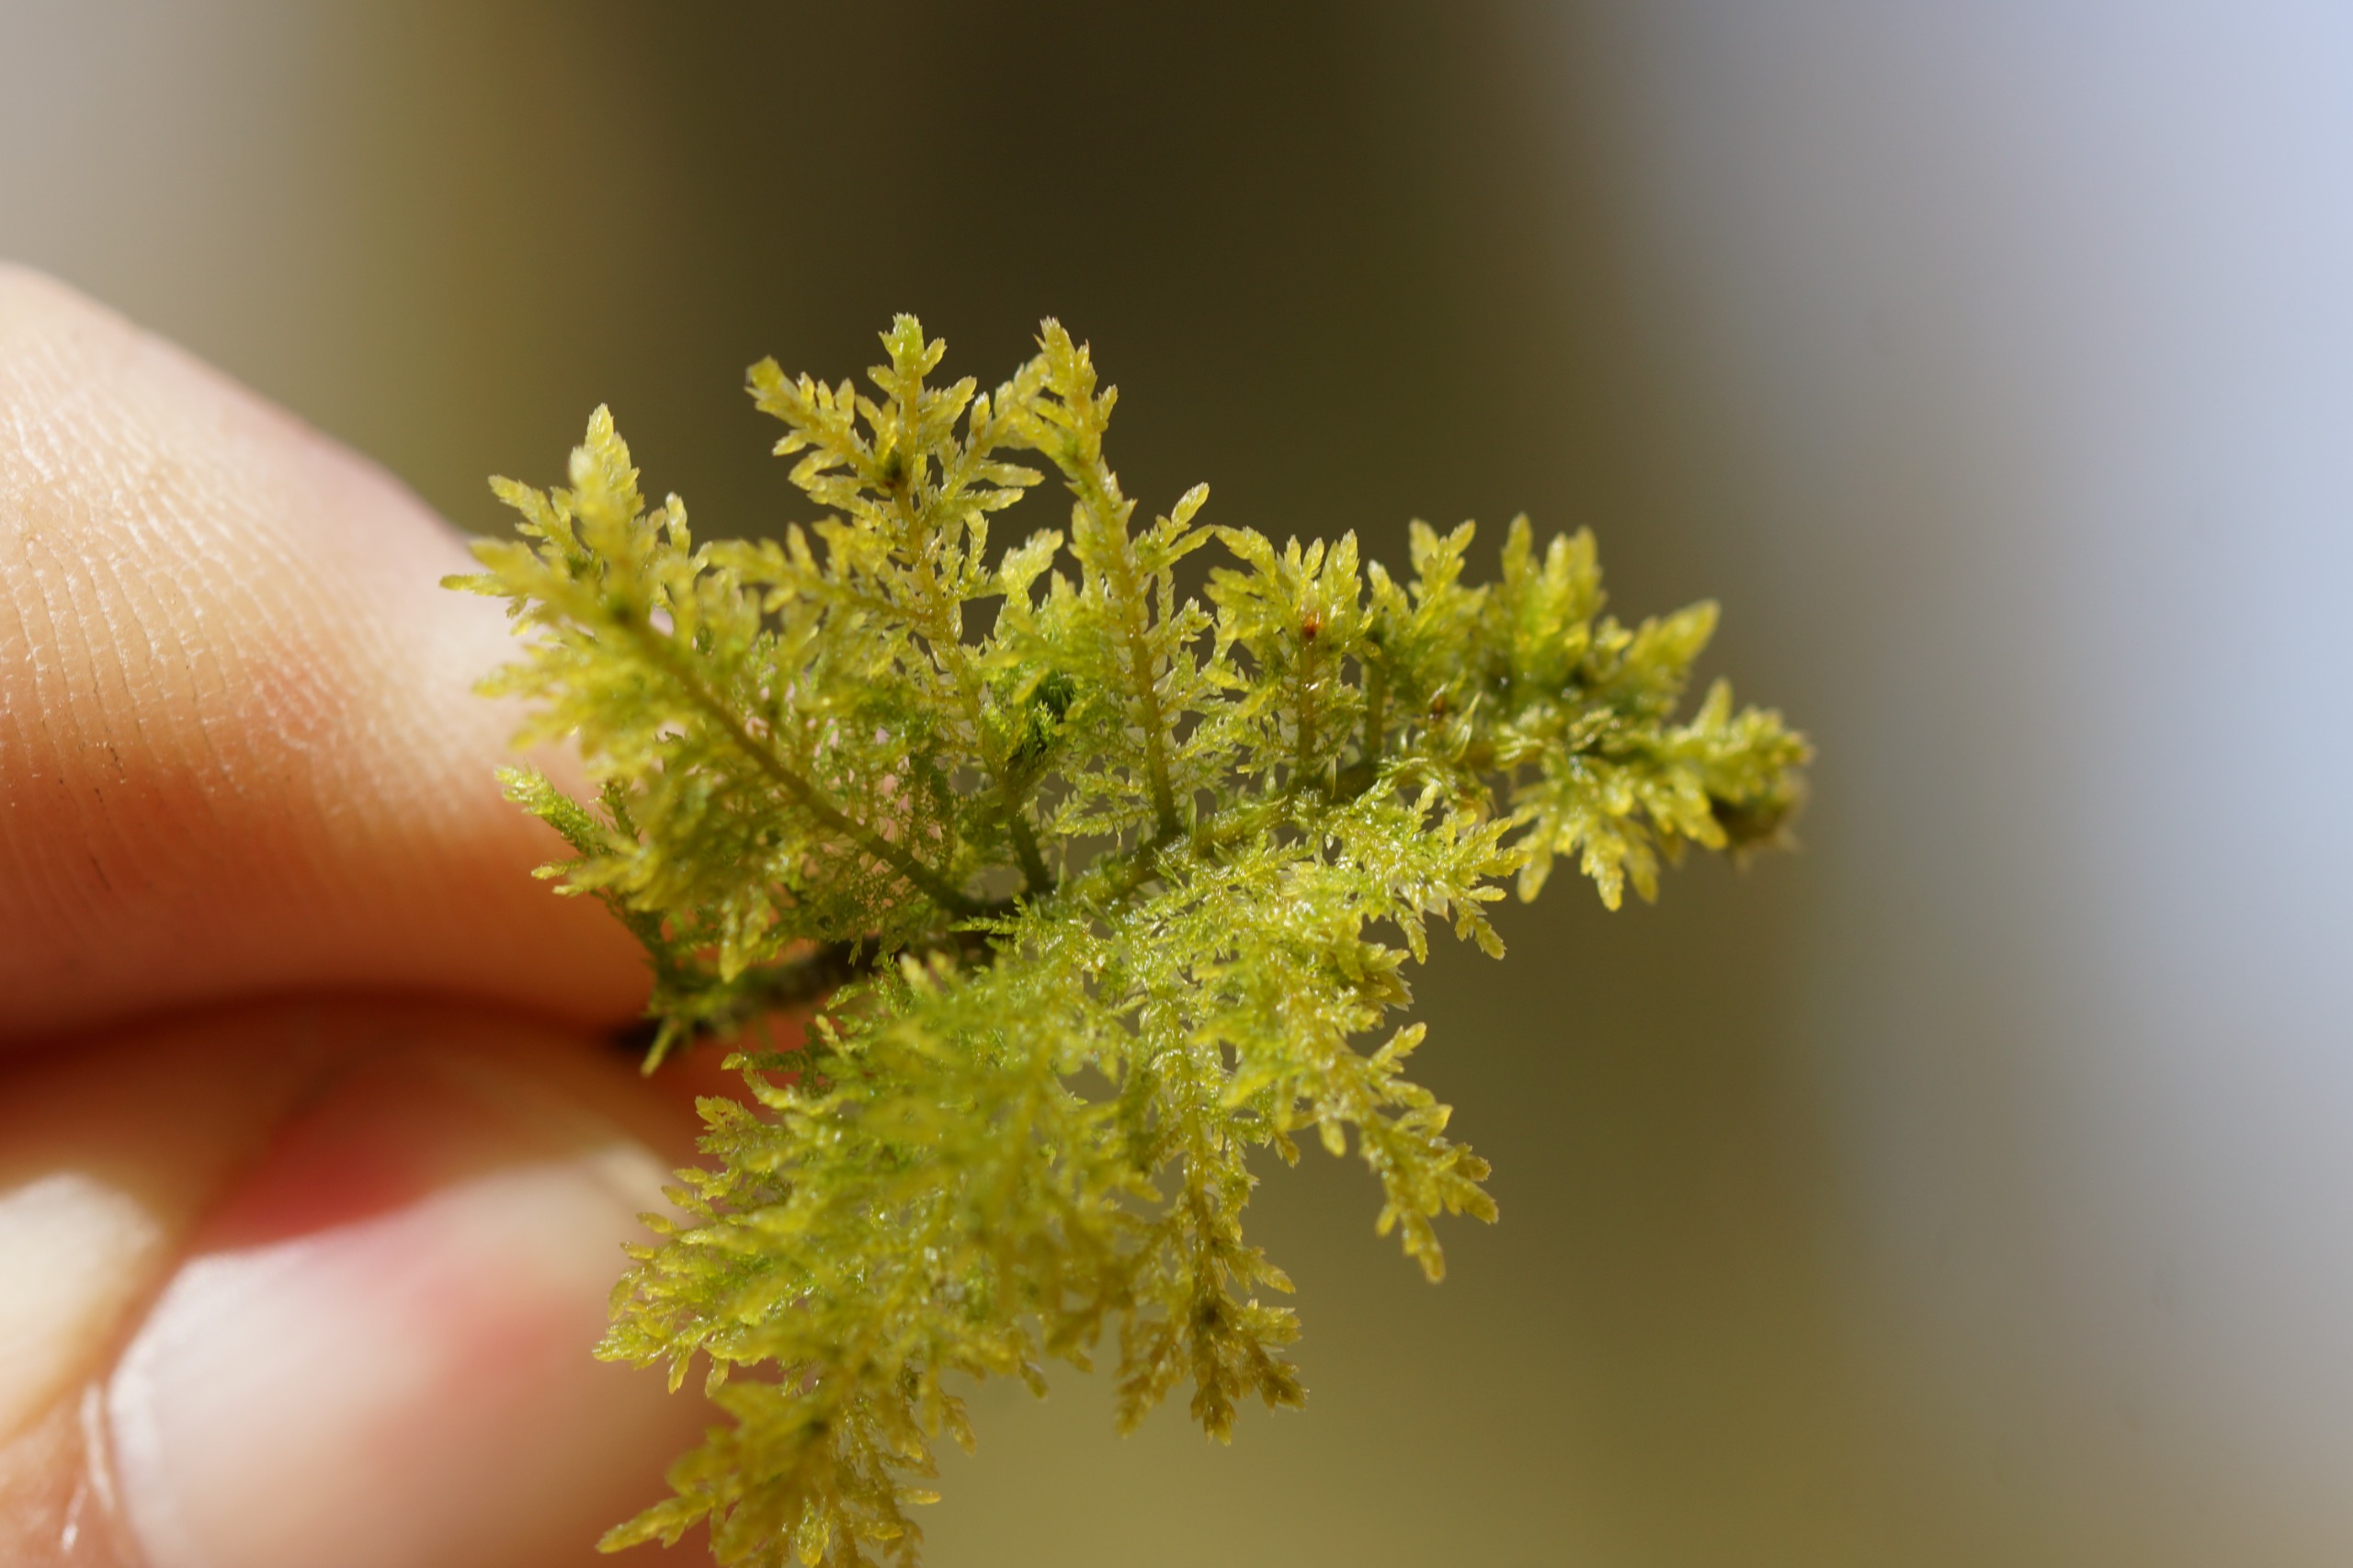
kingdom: Plantae
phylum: Bryophyta
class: Bryopsida
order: Hypnales
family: Thuidiaceae
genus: Thuidium
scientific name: Thuidium tamariscinum
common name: Pryd-bregnemos
